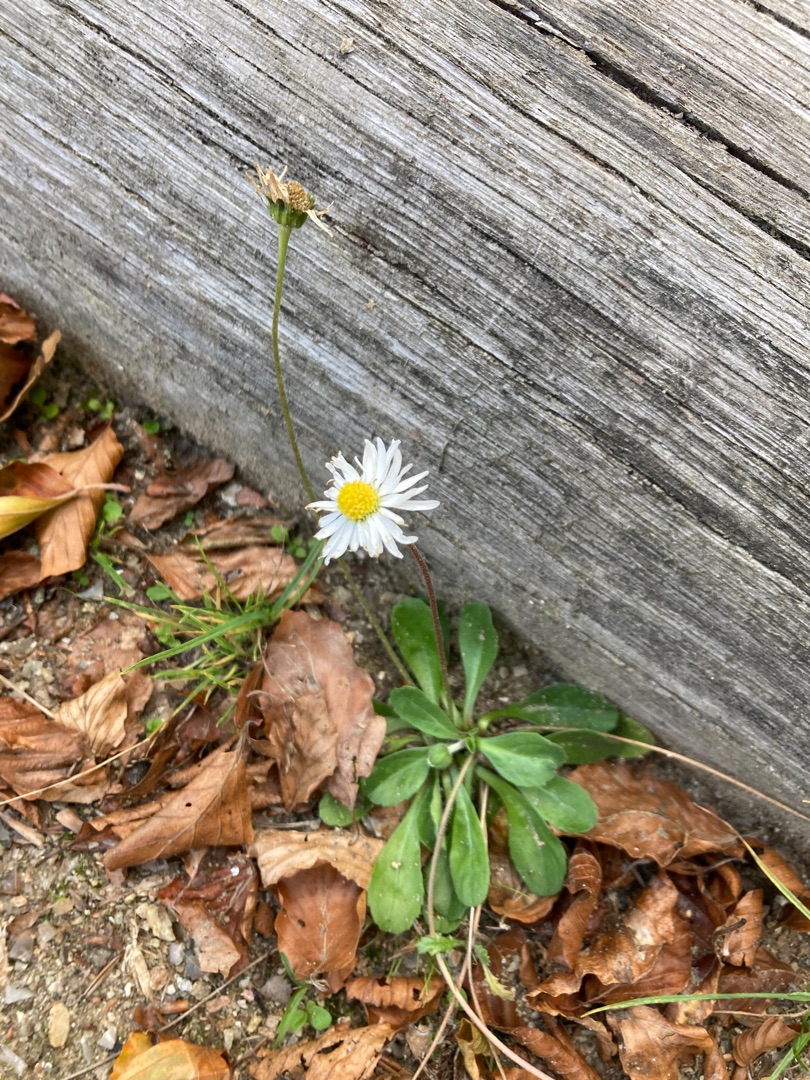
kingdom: Plantae
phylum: Tracheophyta
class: Magnoliopsida
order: Asterales
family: Asteraceae
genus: Bellis
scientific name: Bellis perennis
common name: Tusindfryd
